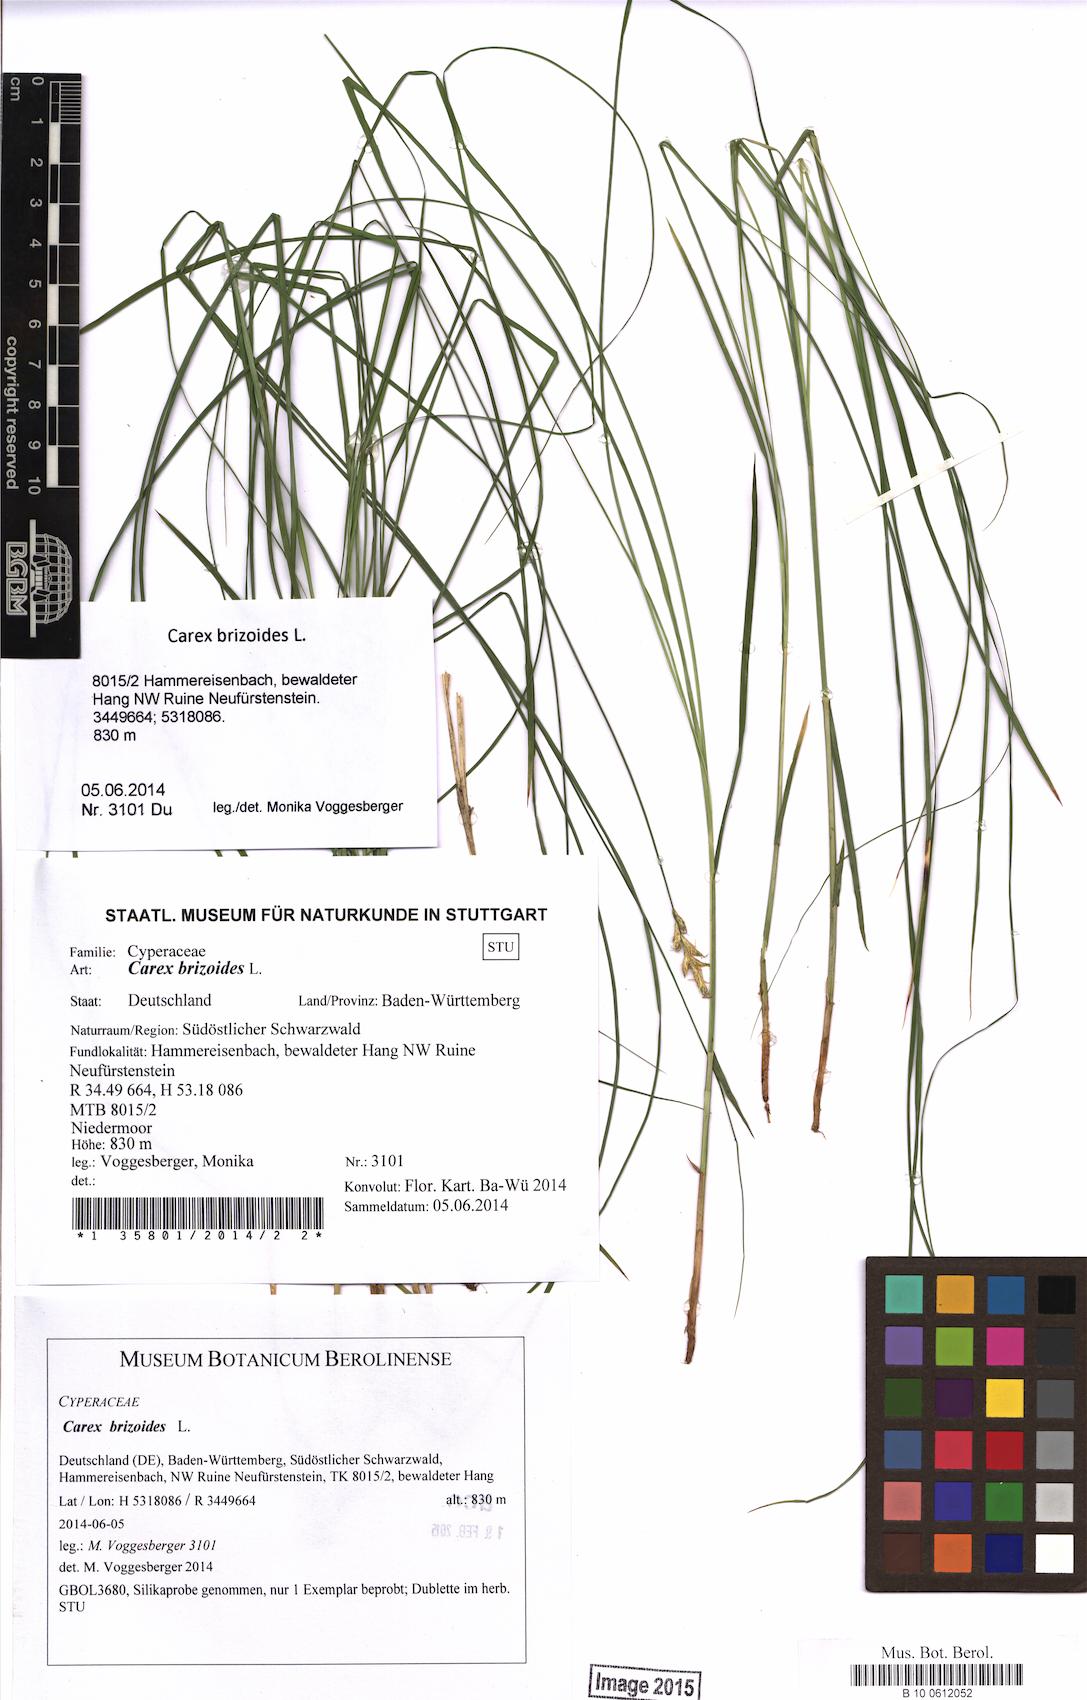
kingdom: Plantae
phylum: Tracheophyta
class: Liliopsida
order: Poales
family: Cyperaceae
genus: Carex
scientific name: Carex brizoides
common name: Quaking-grass sedge
